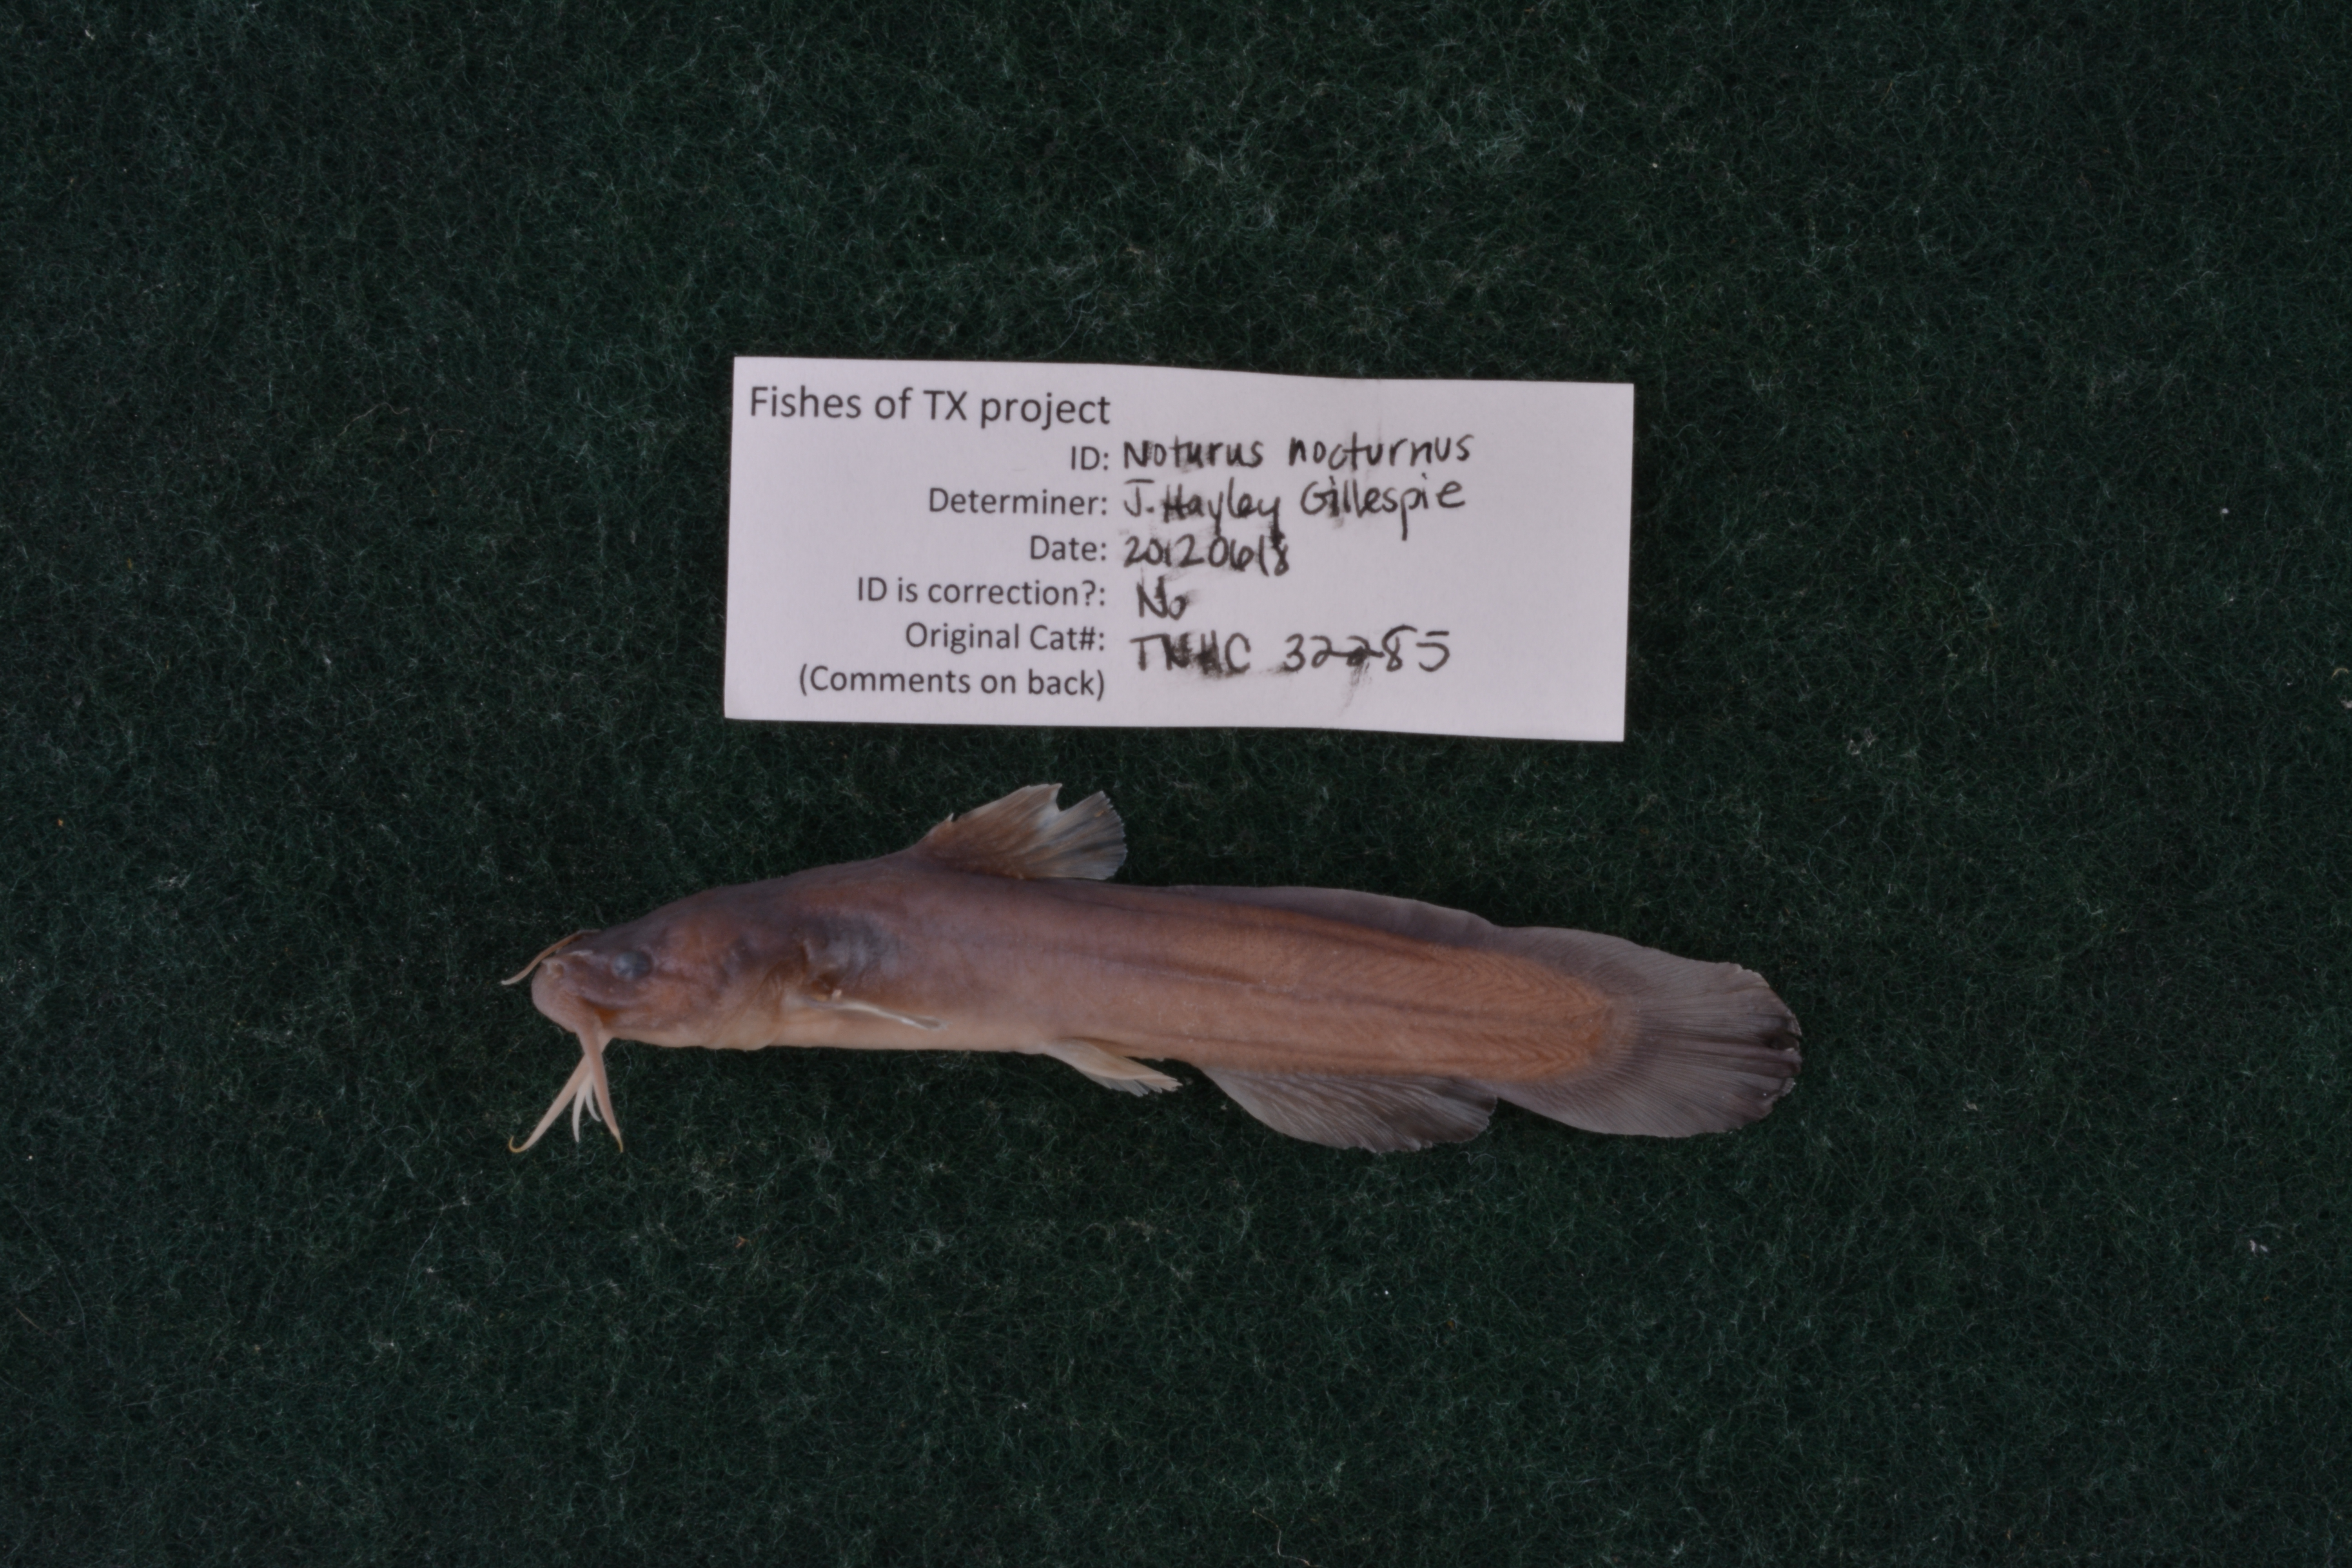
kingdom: Animalia
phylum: Chordata
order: Siluriformes
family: Ictaluridae
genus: Noturus
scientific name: Noturus nocturnus
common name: Freckled madtom
